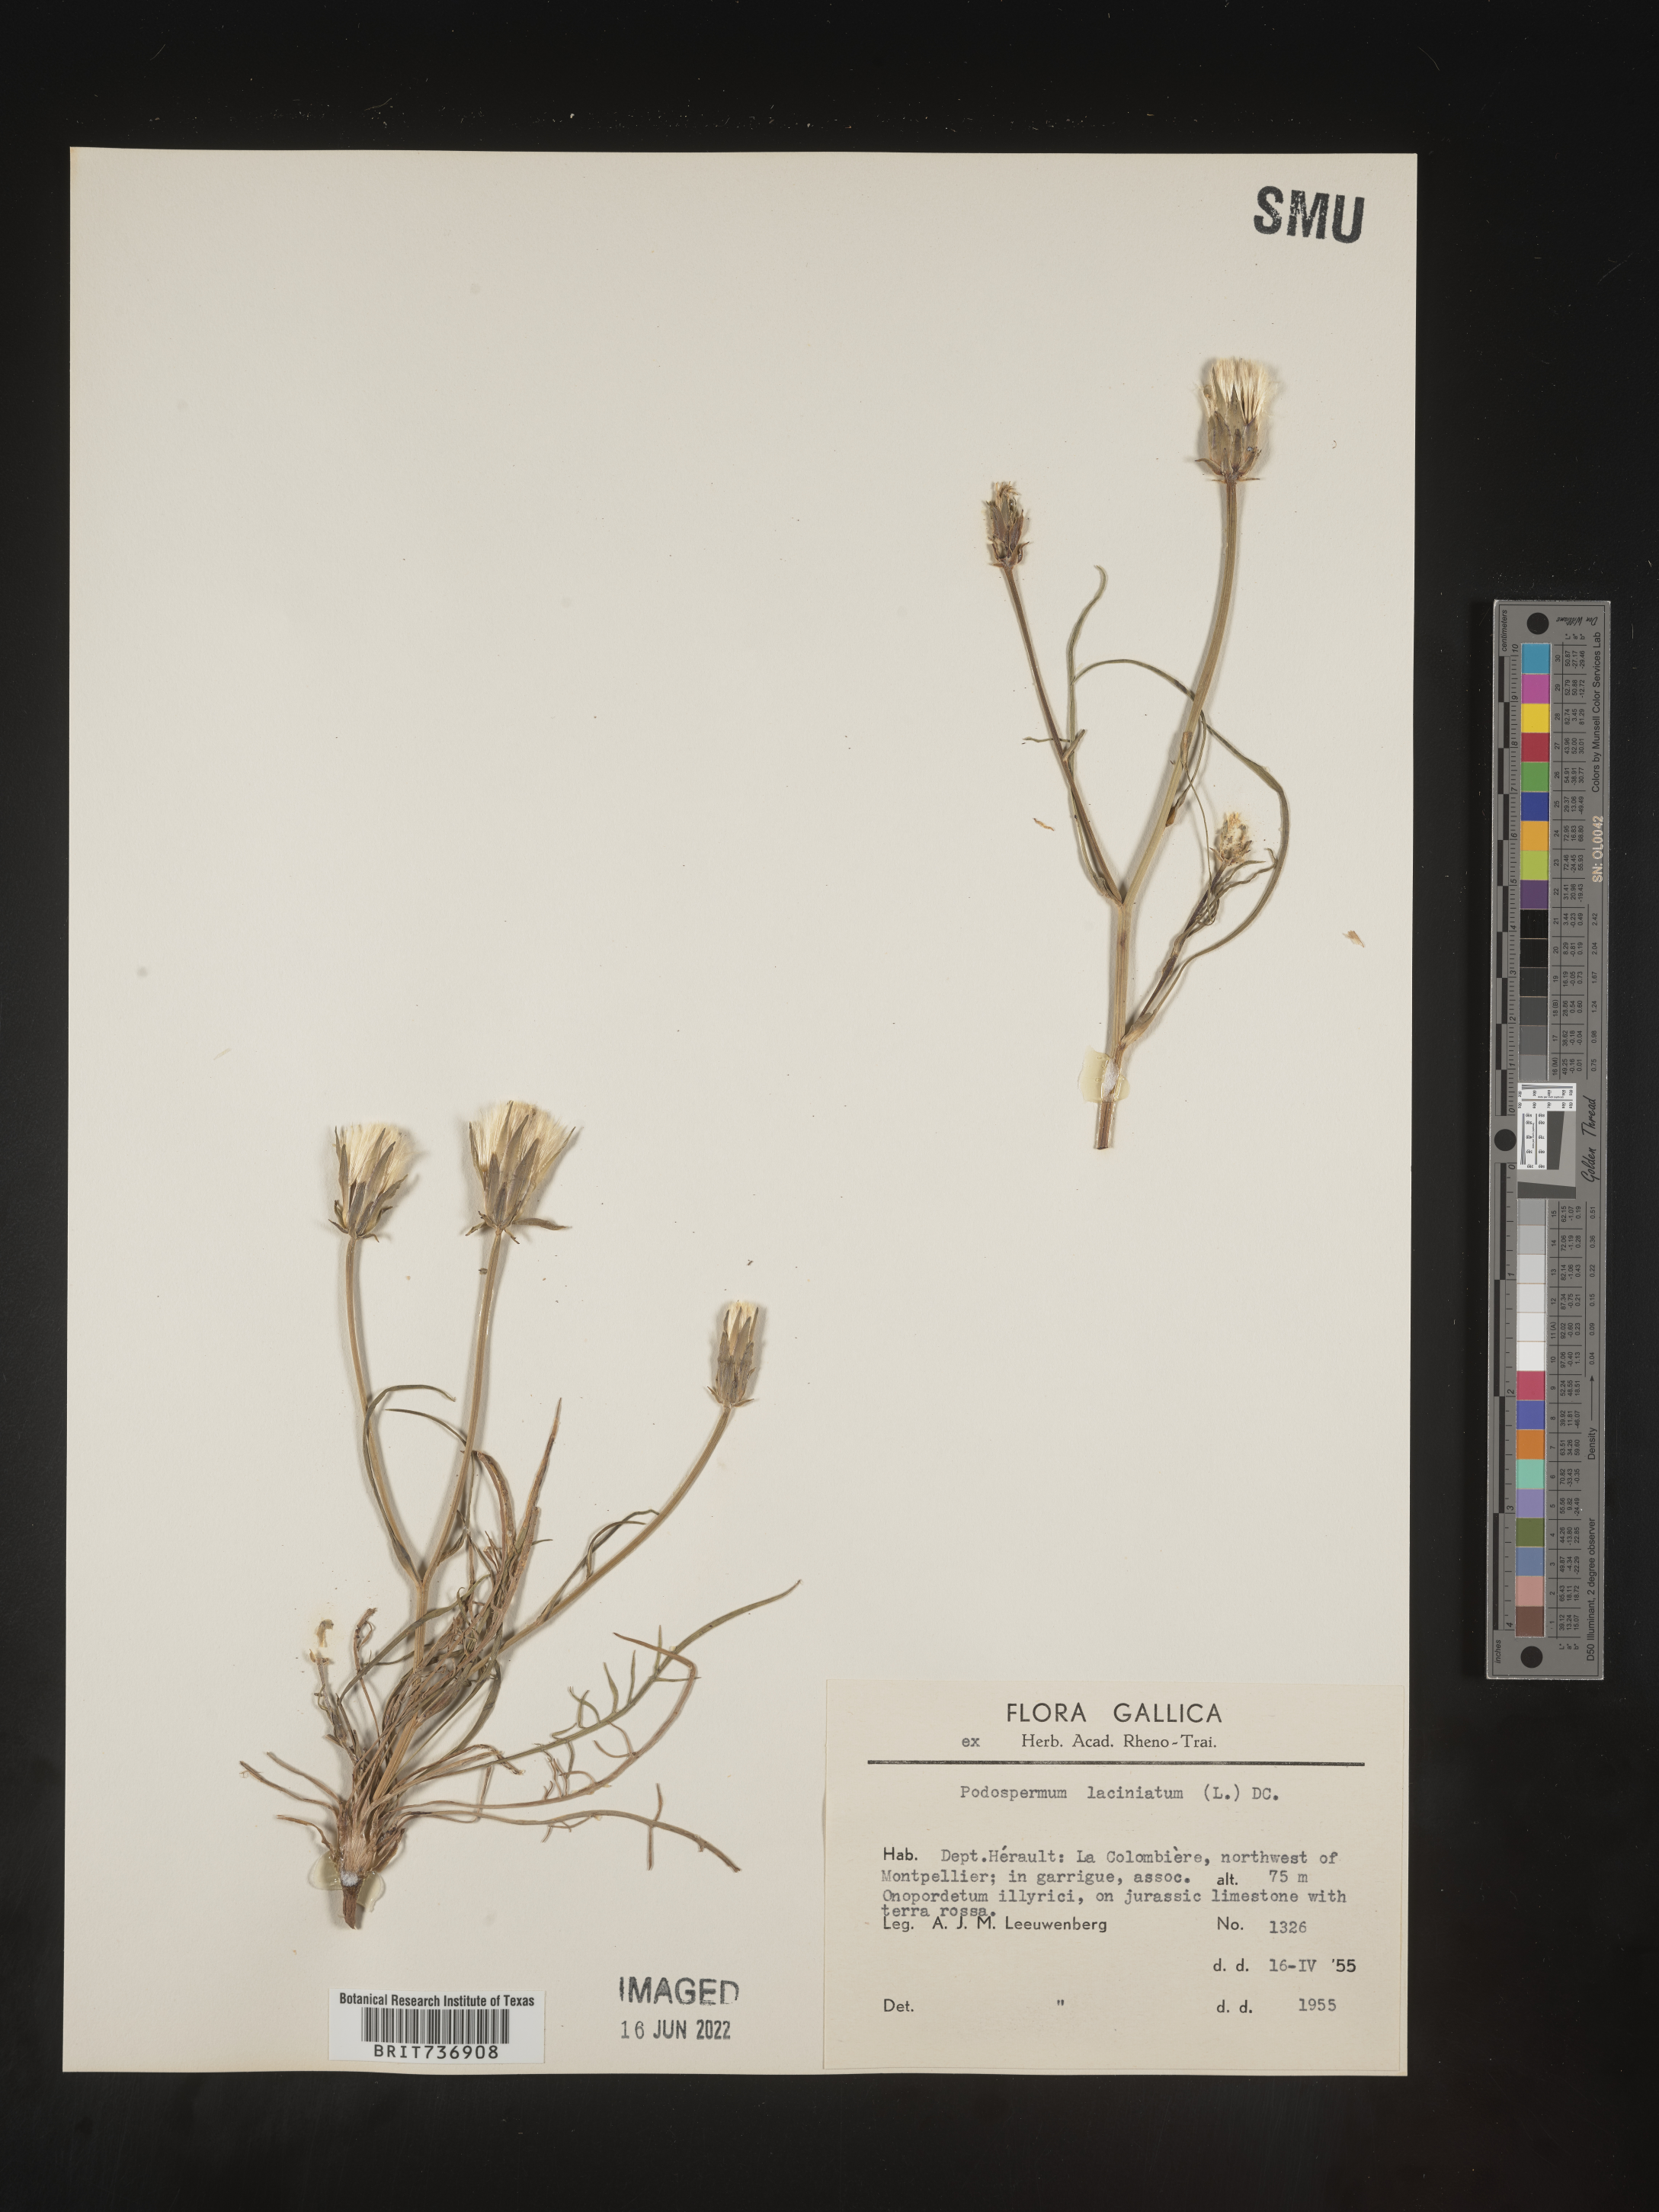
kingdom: Plantae
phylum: Tracheophyta
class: Magnoliopsida
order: Asterales
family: Asteraceae
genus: Scorzonera
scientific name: Scorzonera
